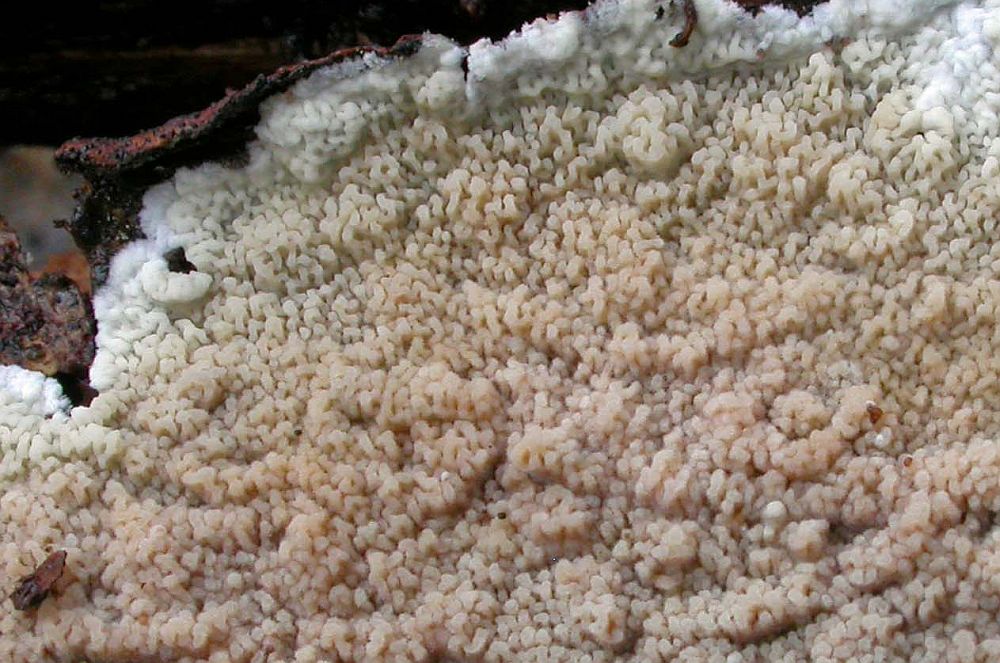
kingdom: Fungi
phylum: Basidiomycota
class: Agaricomycetes
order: Polyporales
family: Meruliaceae
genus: Phlebia
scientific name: Phlebia rufa
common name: ege-åresvamp
